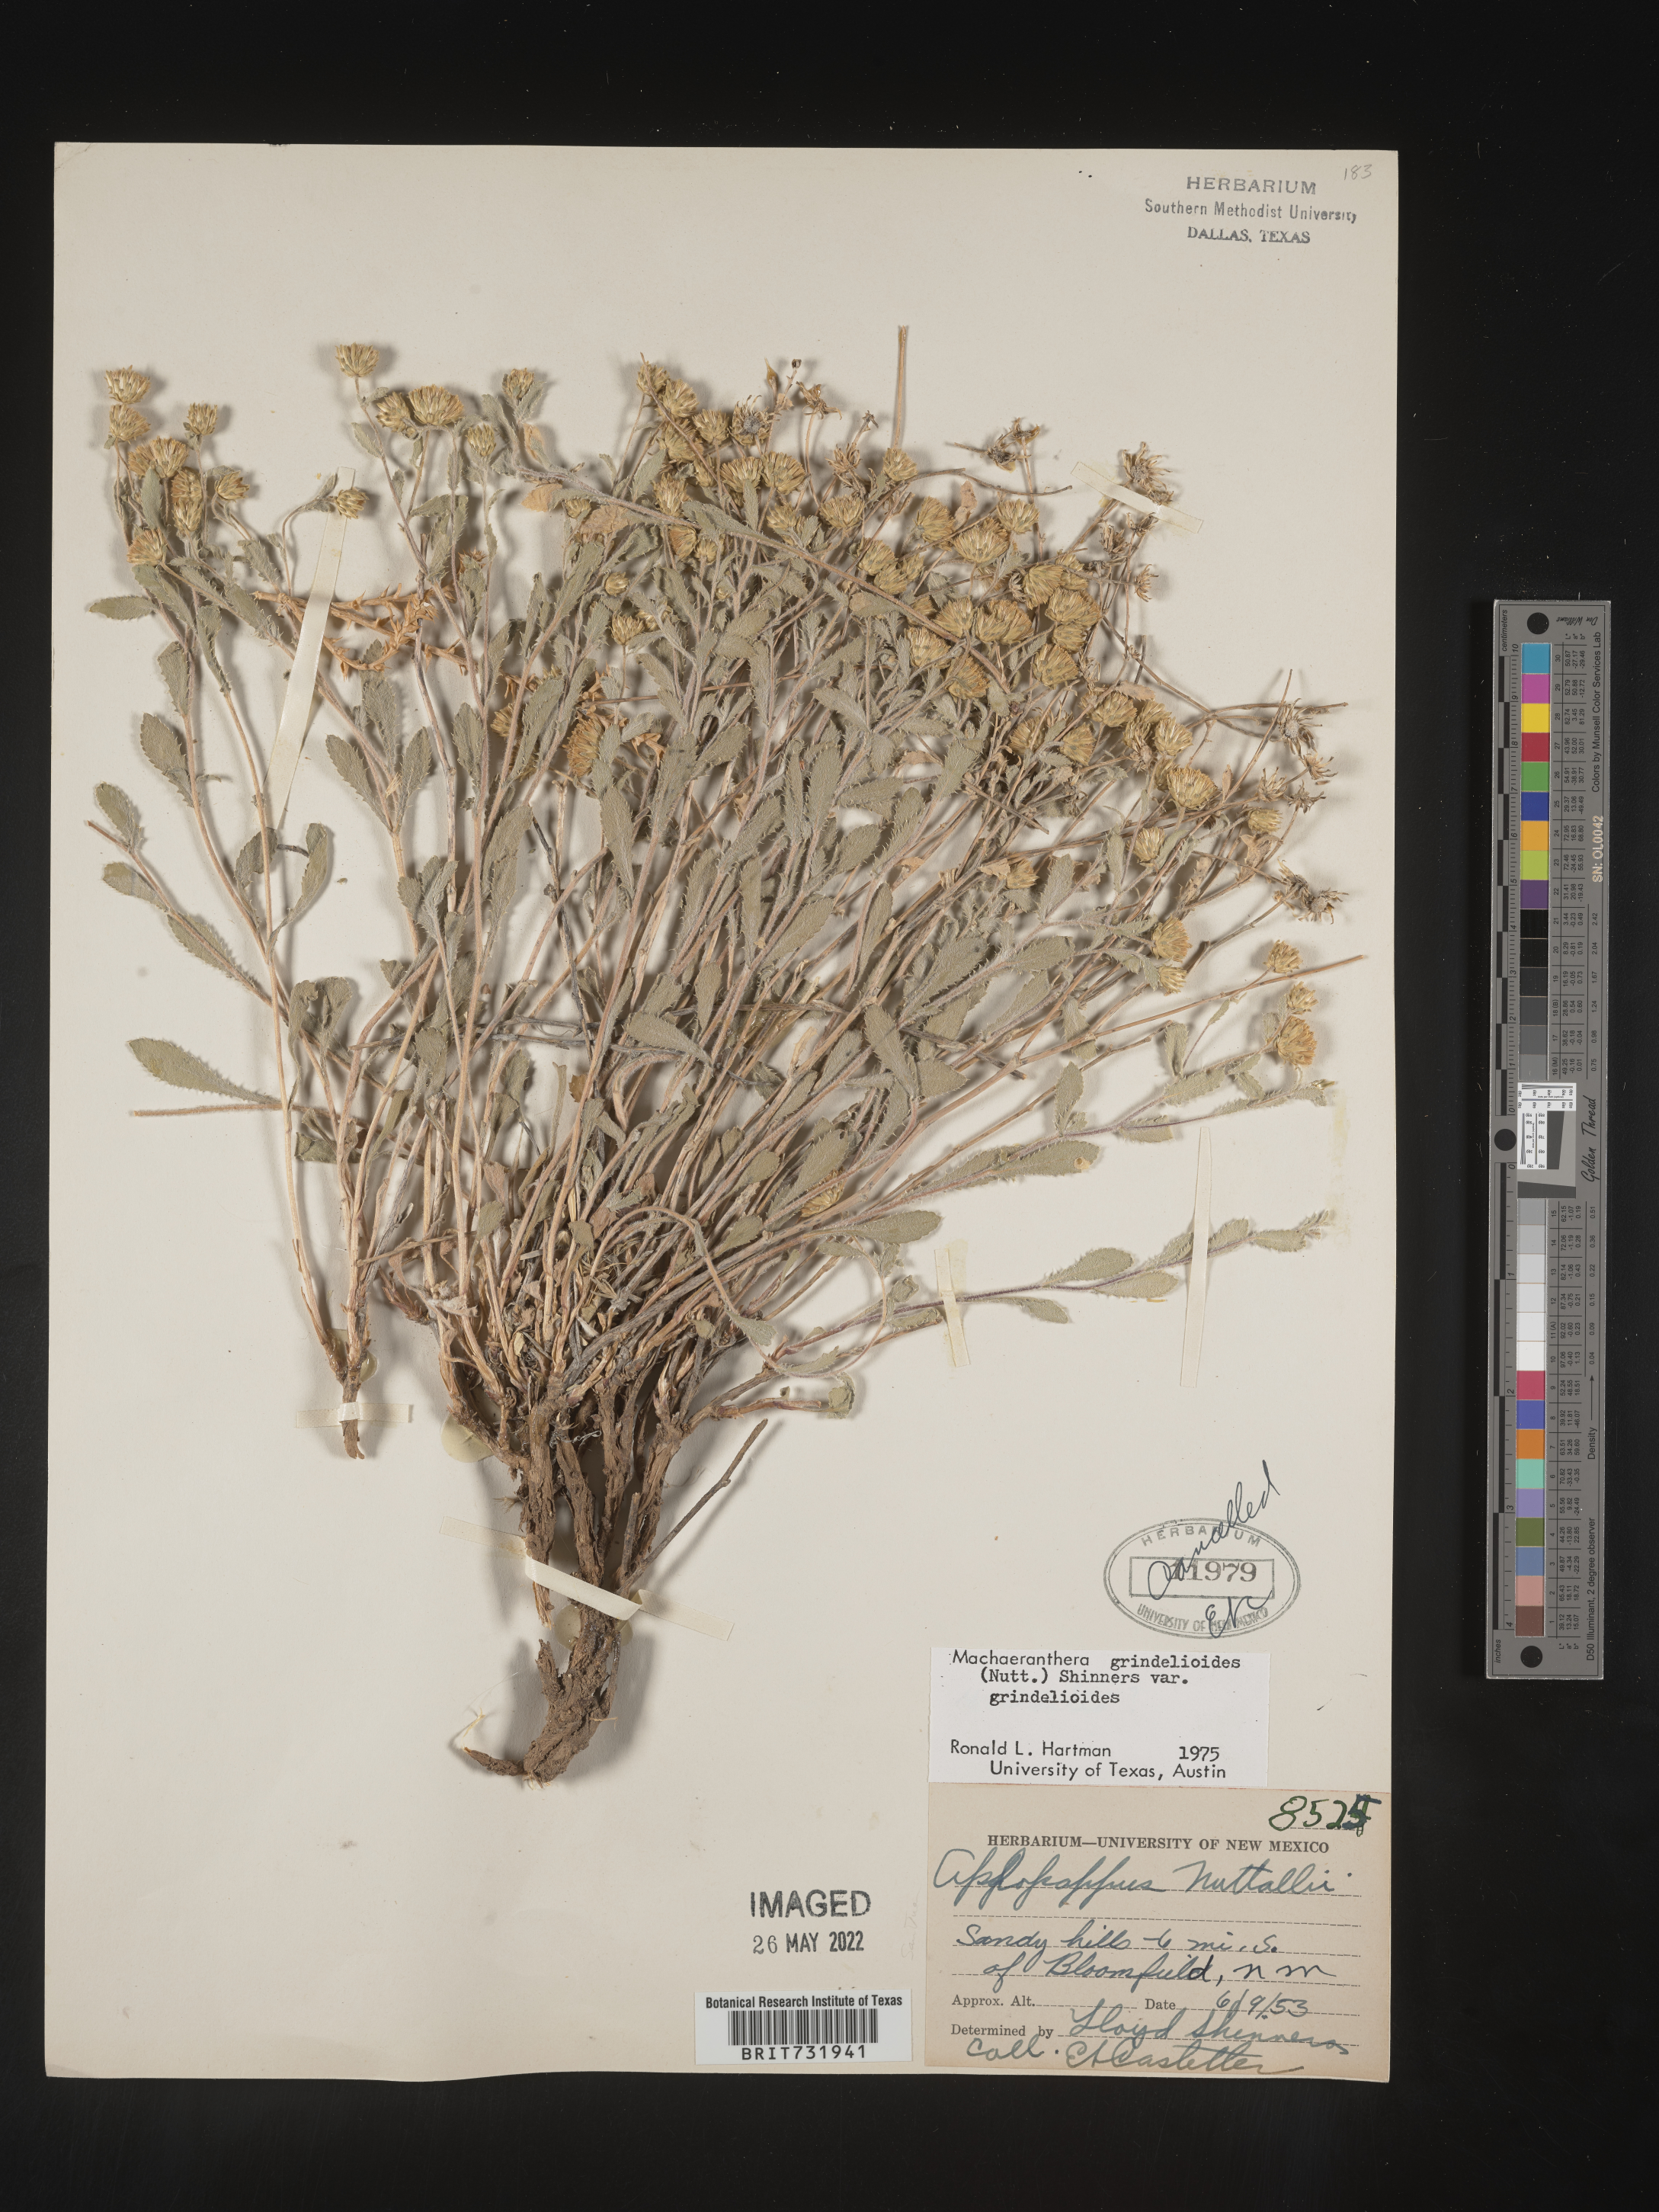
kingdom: Plantae
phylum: Tracheophyta
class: Magnoliopsida
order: Asterales
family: Asteraceae
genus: Xanthisma
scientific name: Xanthisma grindelioides
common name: Goldenweed
